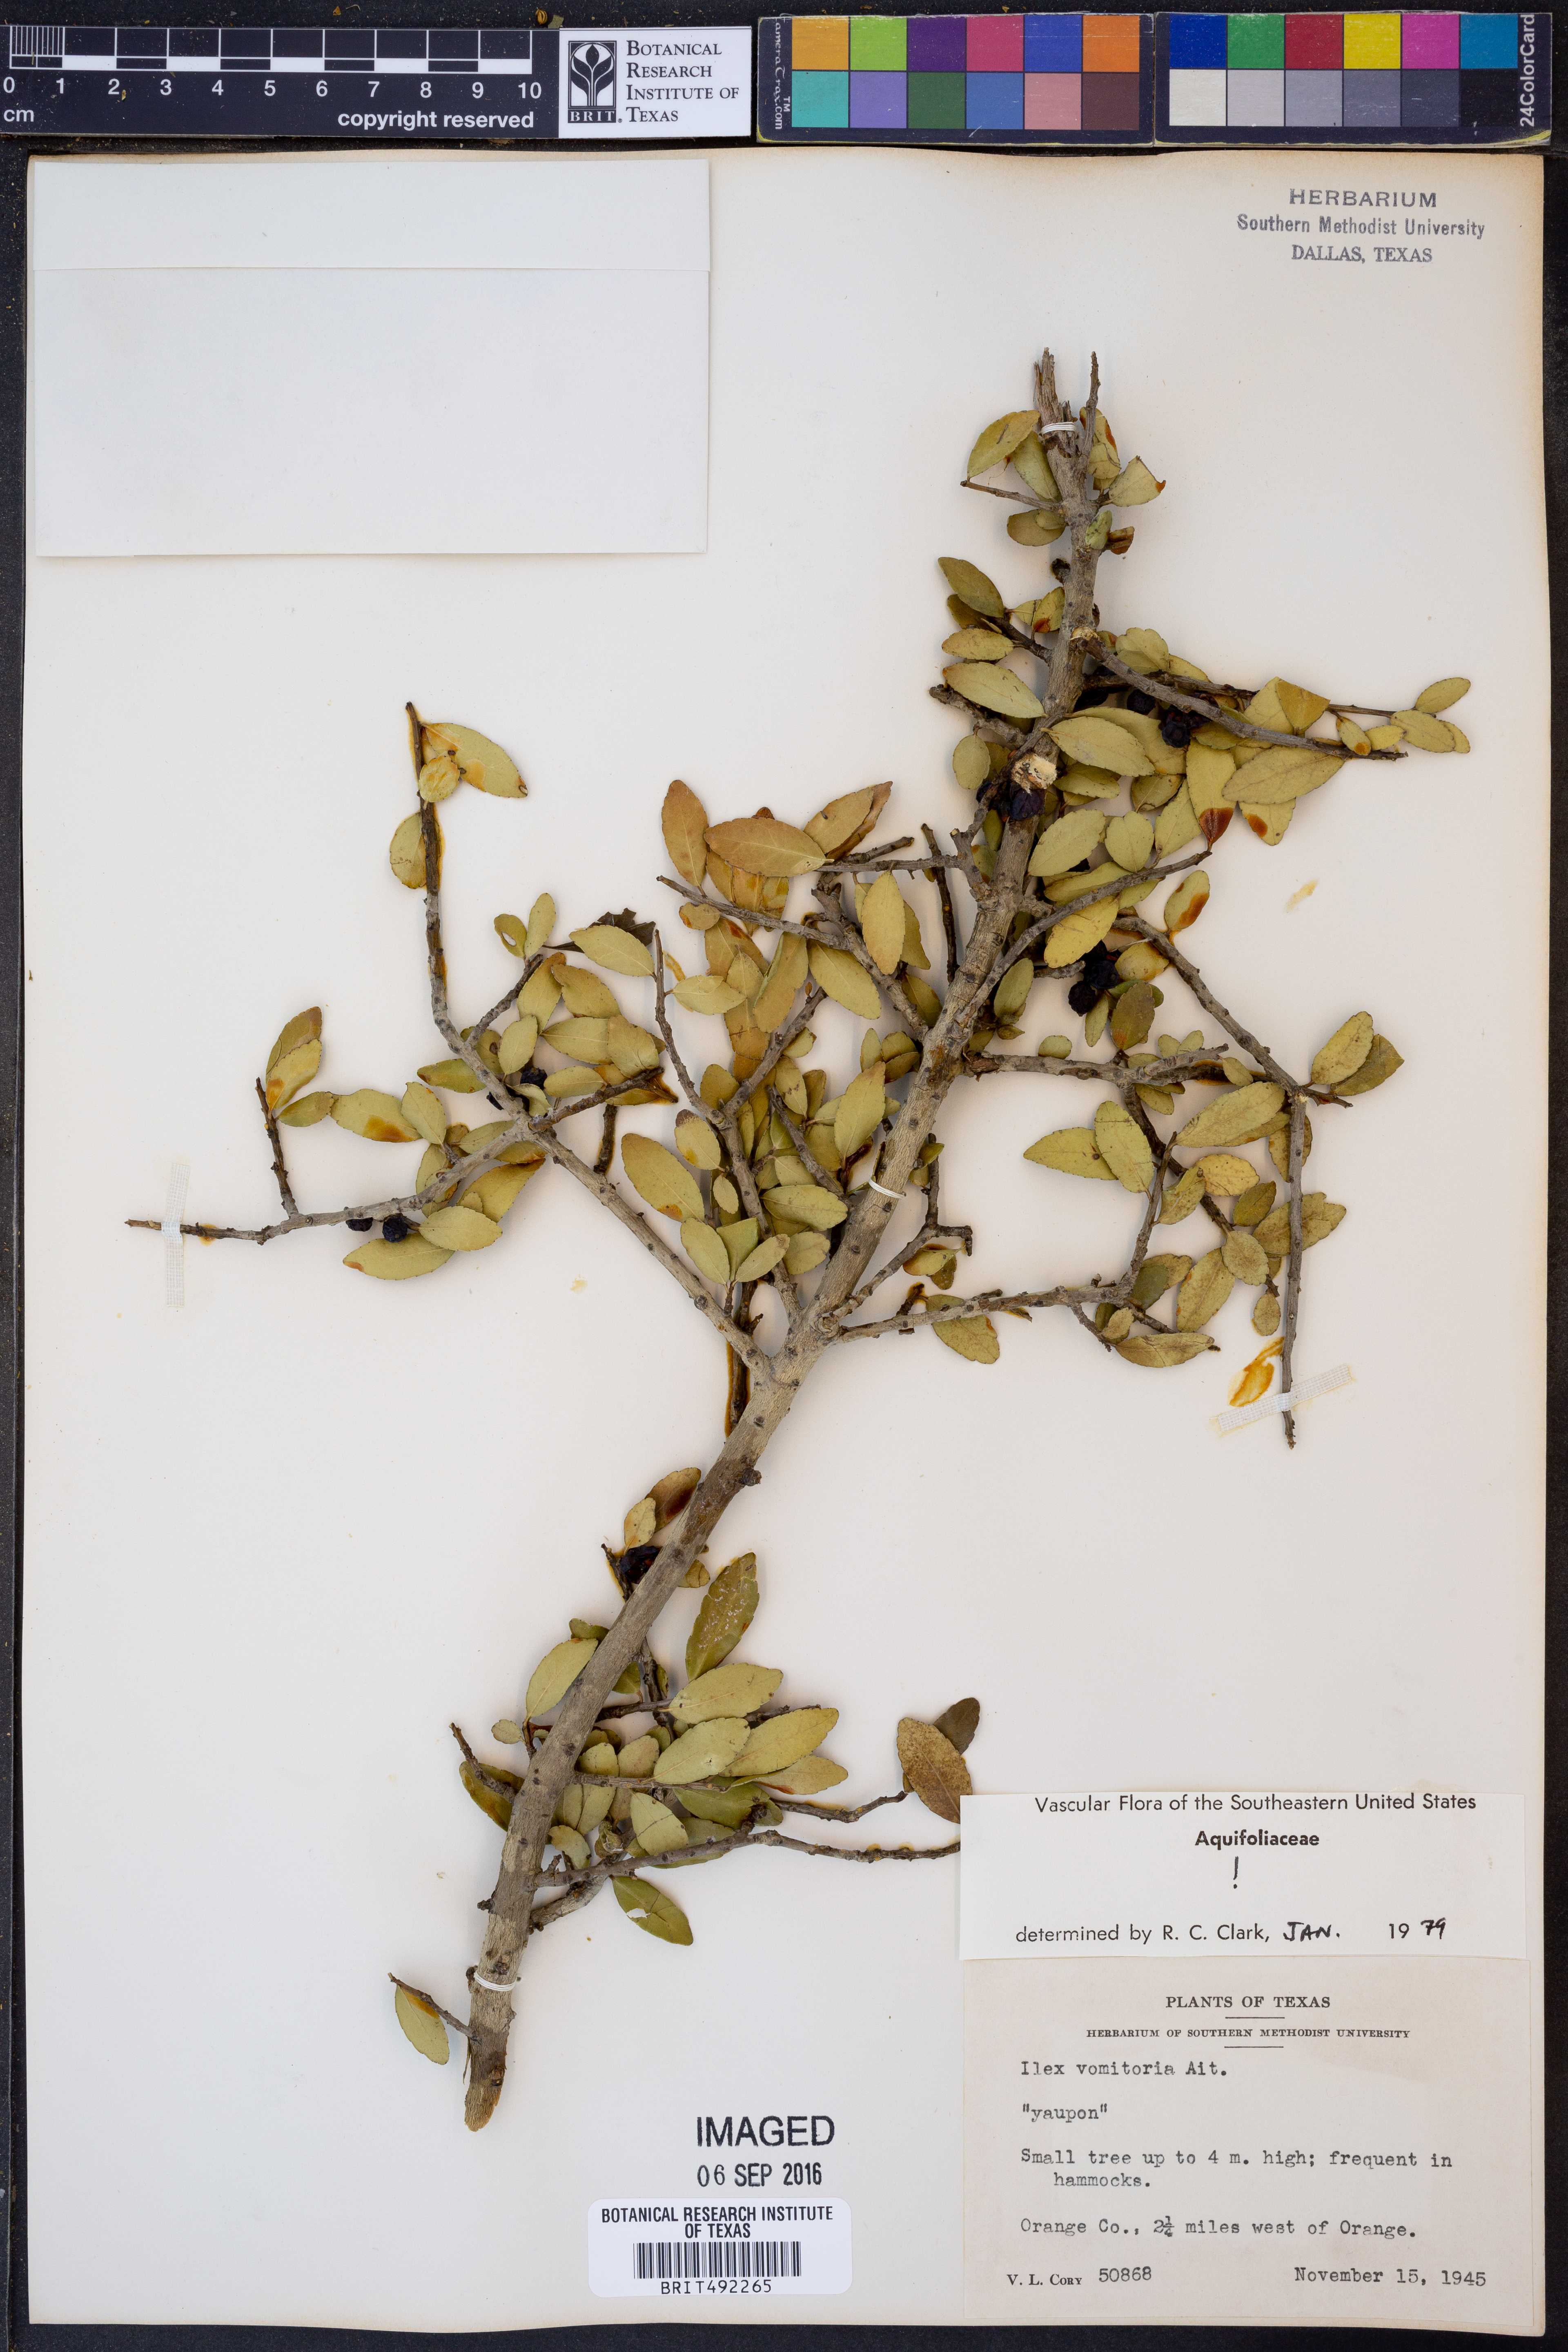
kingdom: Plantae
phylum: Tracheophyta
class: Magnoliopsida
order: Aquifoliales
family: Aquifoliaceae
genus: Ilex
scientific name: Ilex vomitoria
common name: Yaupon holly
